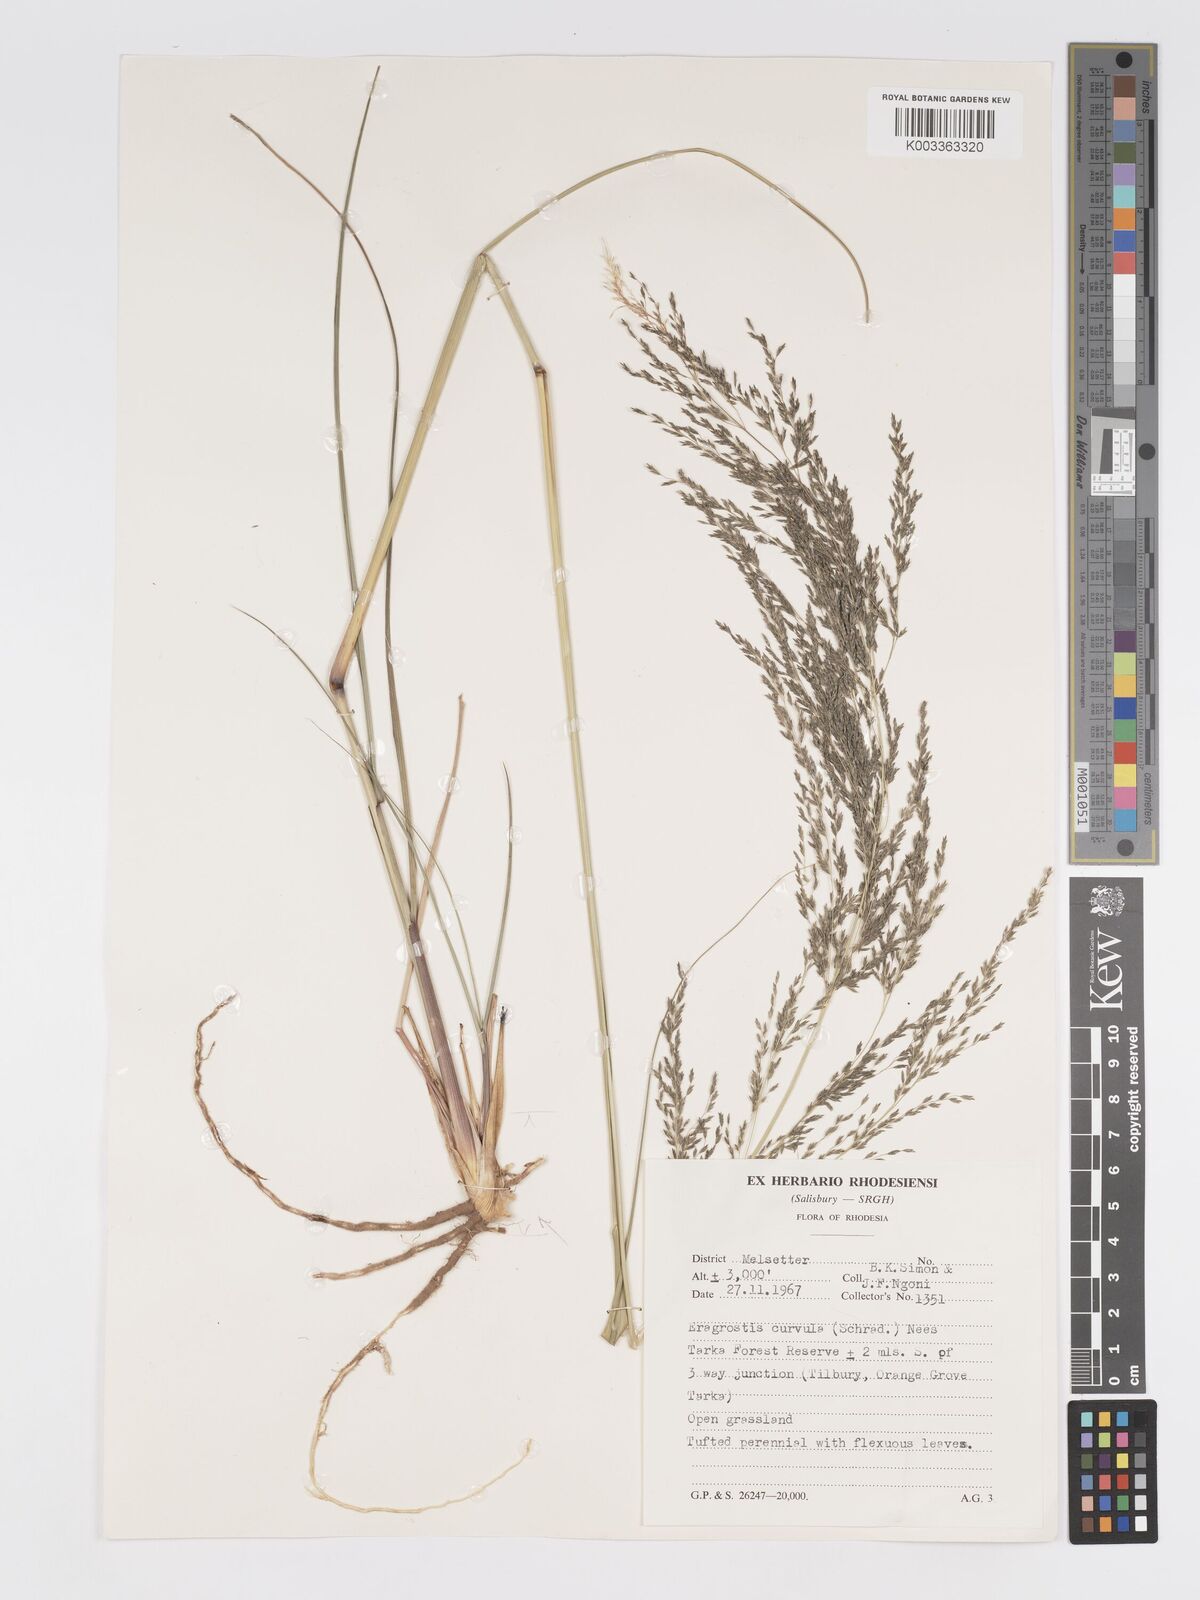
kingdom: Plantae
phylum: Tracheophyta
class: Liliopsida
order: Poales
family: Poaceae
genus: Eragrostis
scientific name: Eragrostis curvula
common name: African love-grass
